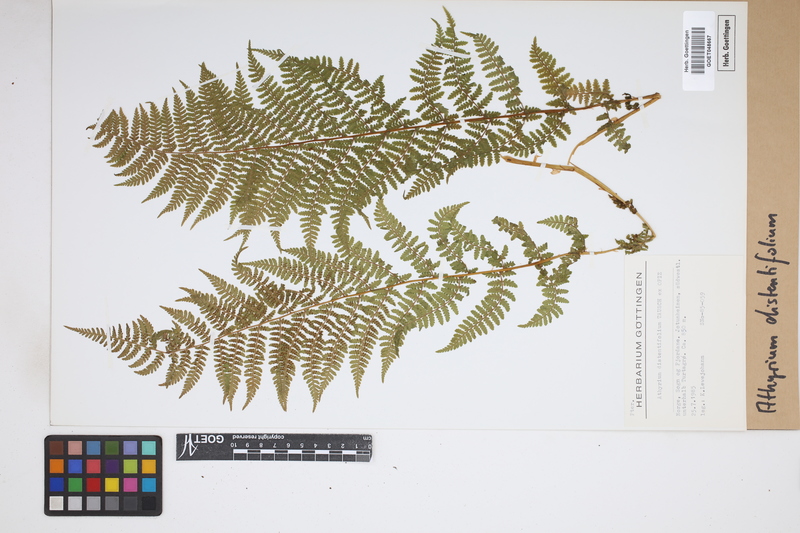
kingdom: Plantae
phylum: Tracheophyta
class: Polypodiopsida
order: Polypodiales
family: Athyriaceae
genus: Pseudathyrium
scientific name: Pseudathyrium alpestre
